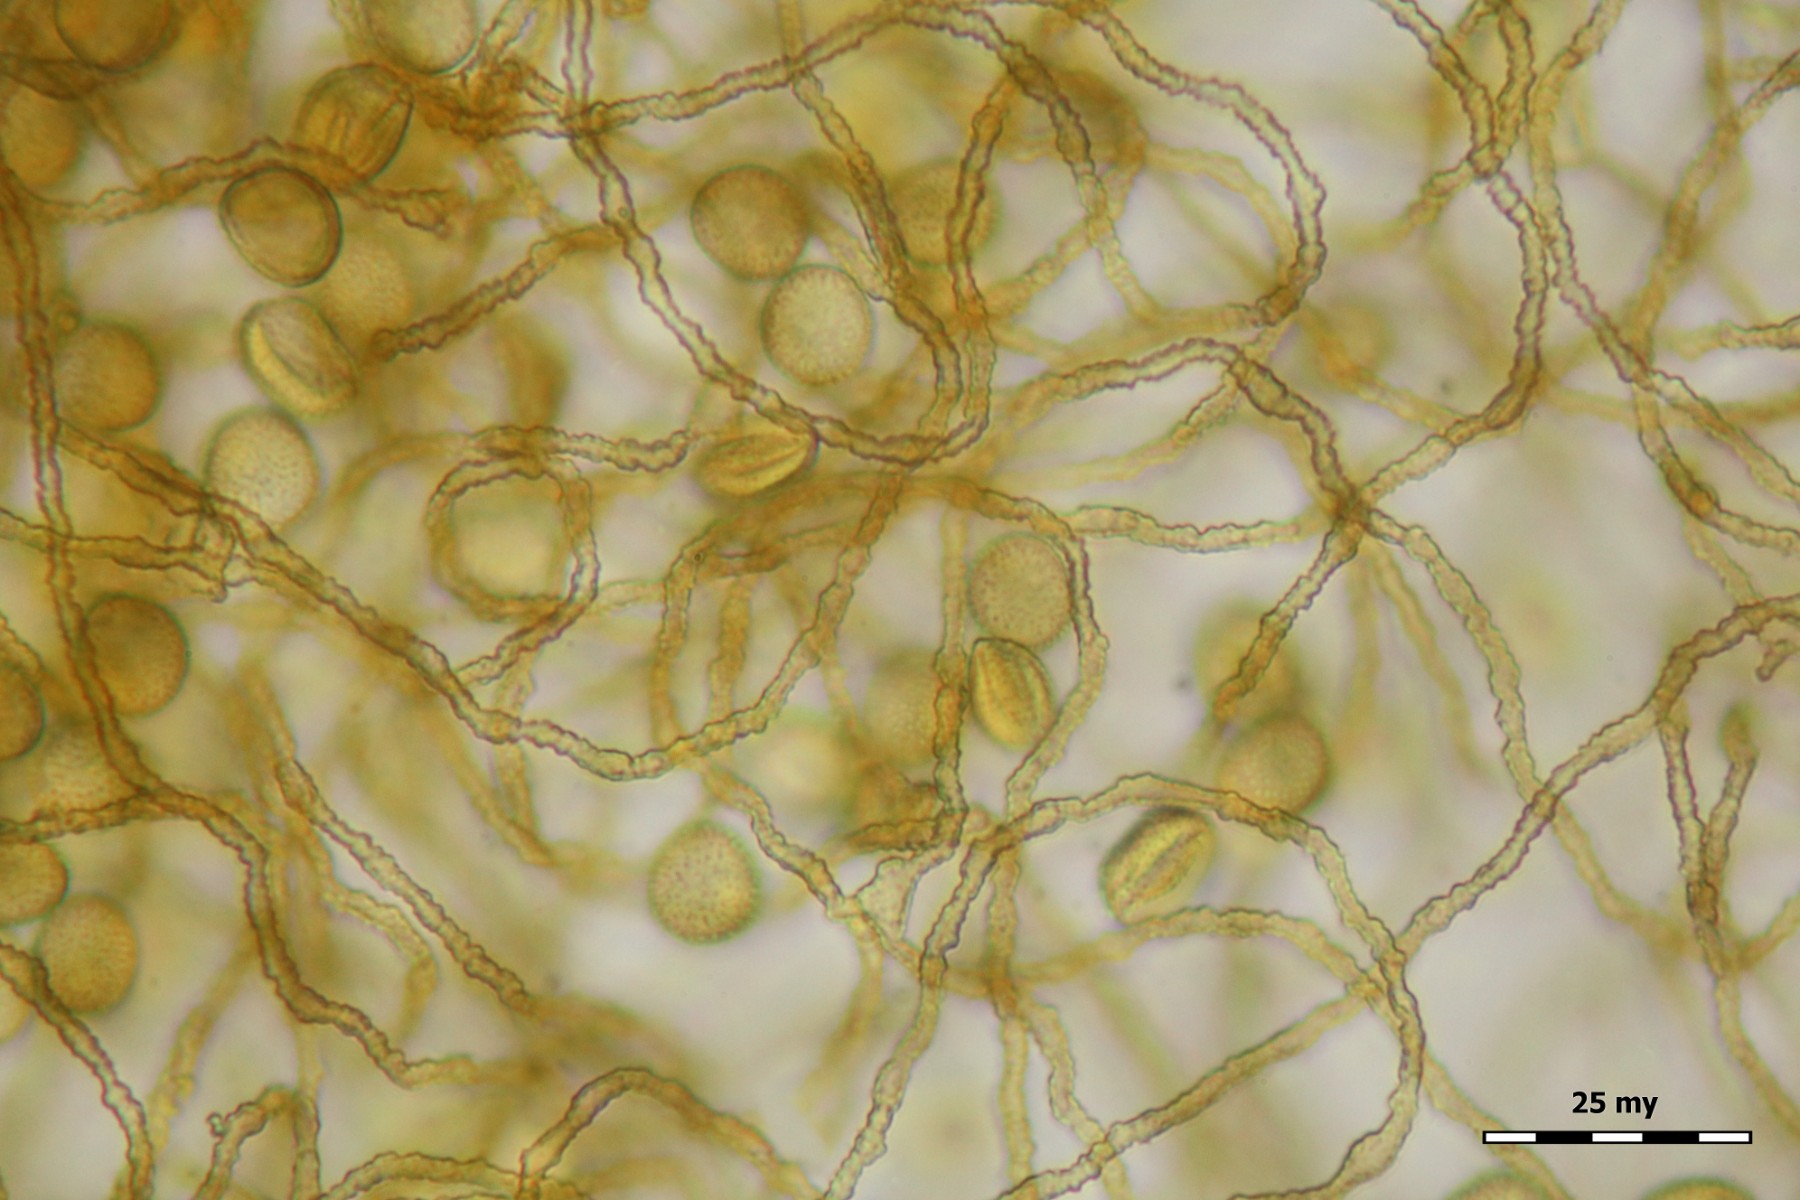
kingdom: Protozoa
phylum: Mycetozoa
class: Myxomycetes
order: Trichiales
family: Trichiaceae
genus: Perichaena
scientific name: Perichaena corticalis
